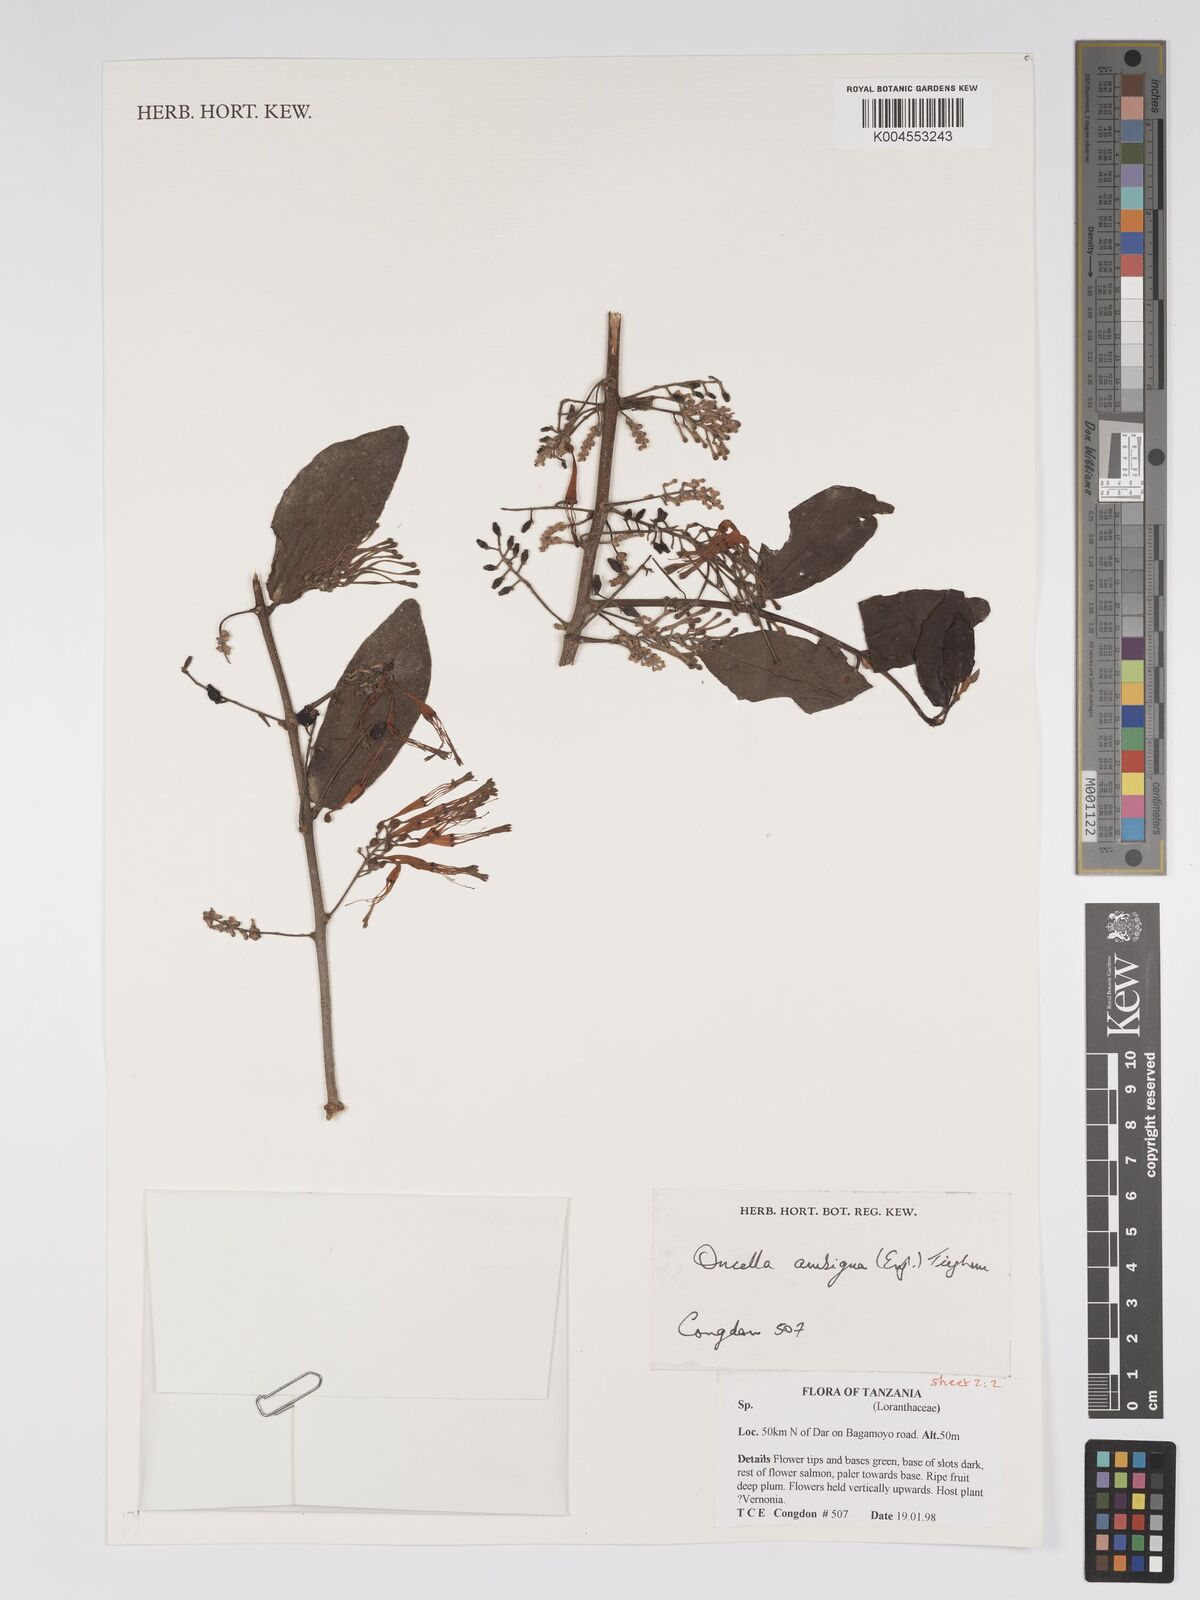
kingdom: Plantae
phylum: Tracheophyta
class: Magnoliopsida
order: Santalales
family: Loranthaceae
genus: Oncella
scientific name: Oncella ambigua
